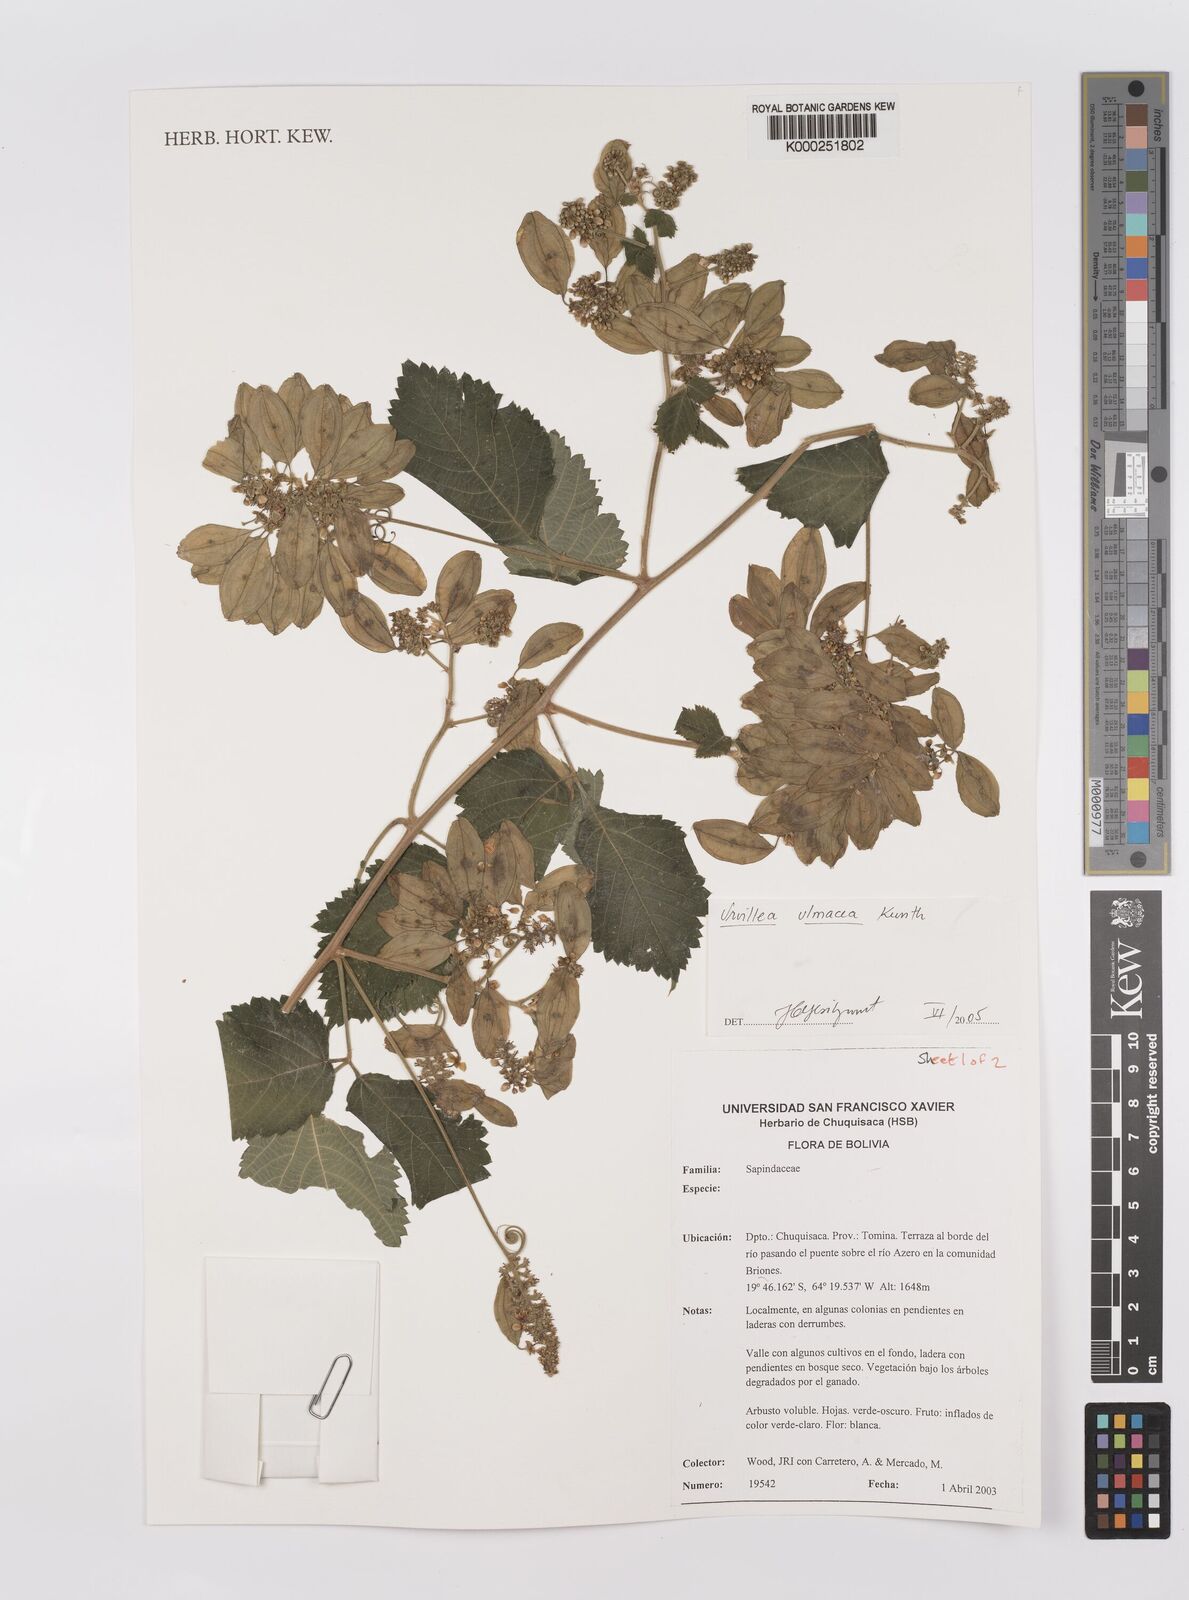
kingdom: Plantae
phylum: Tracheophyta
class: Magnoliopsida
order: Sapindales
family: Sapindaceae
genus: Urvillea
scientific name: Urvillea ulmacea
